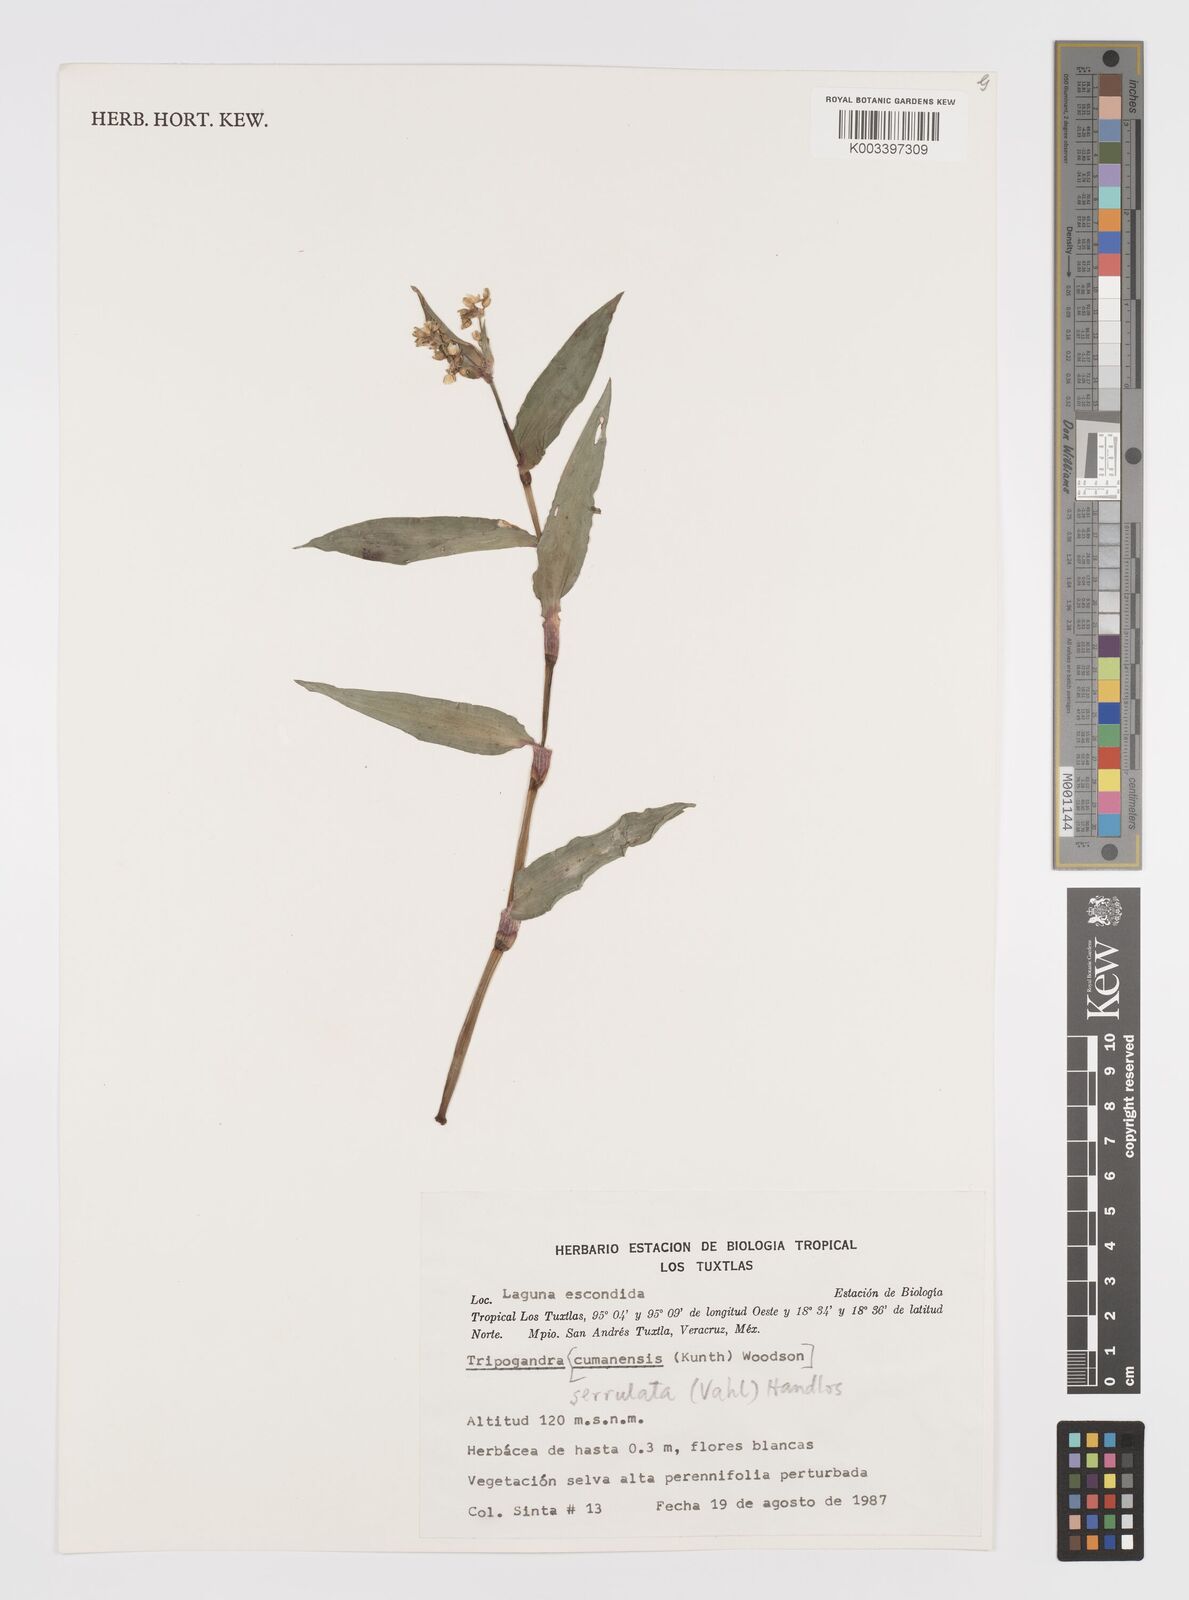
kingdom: Plantae
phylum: Tracheophyta
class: Liliopsida
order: Commelinales
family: Commelinaceae
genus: Callisia
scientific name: Callisia serrulata
